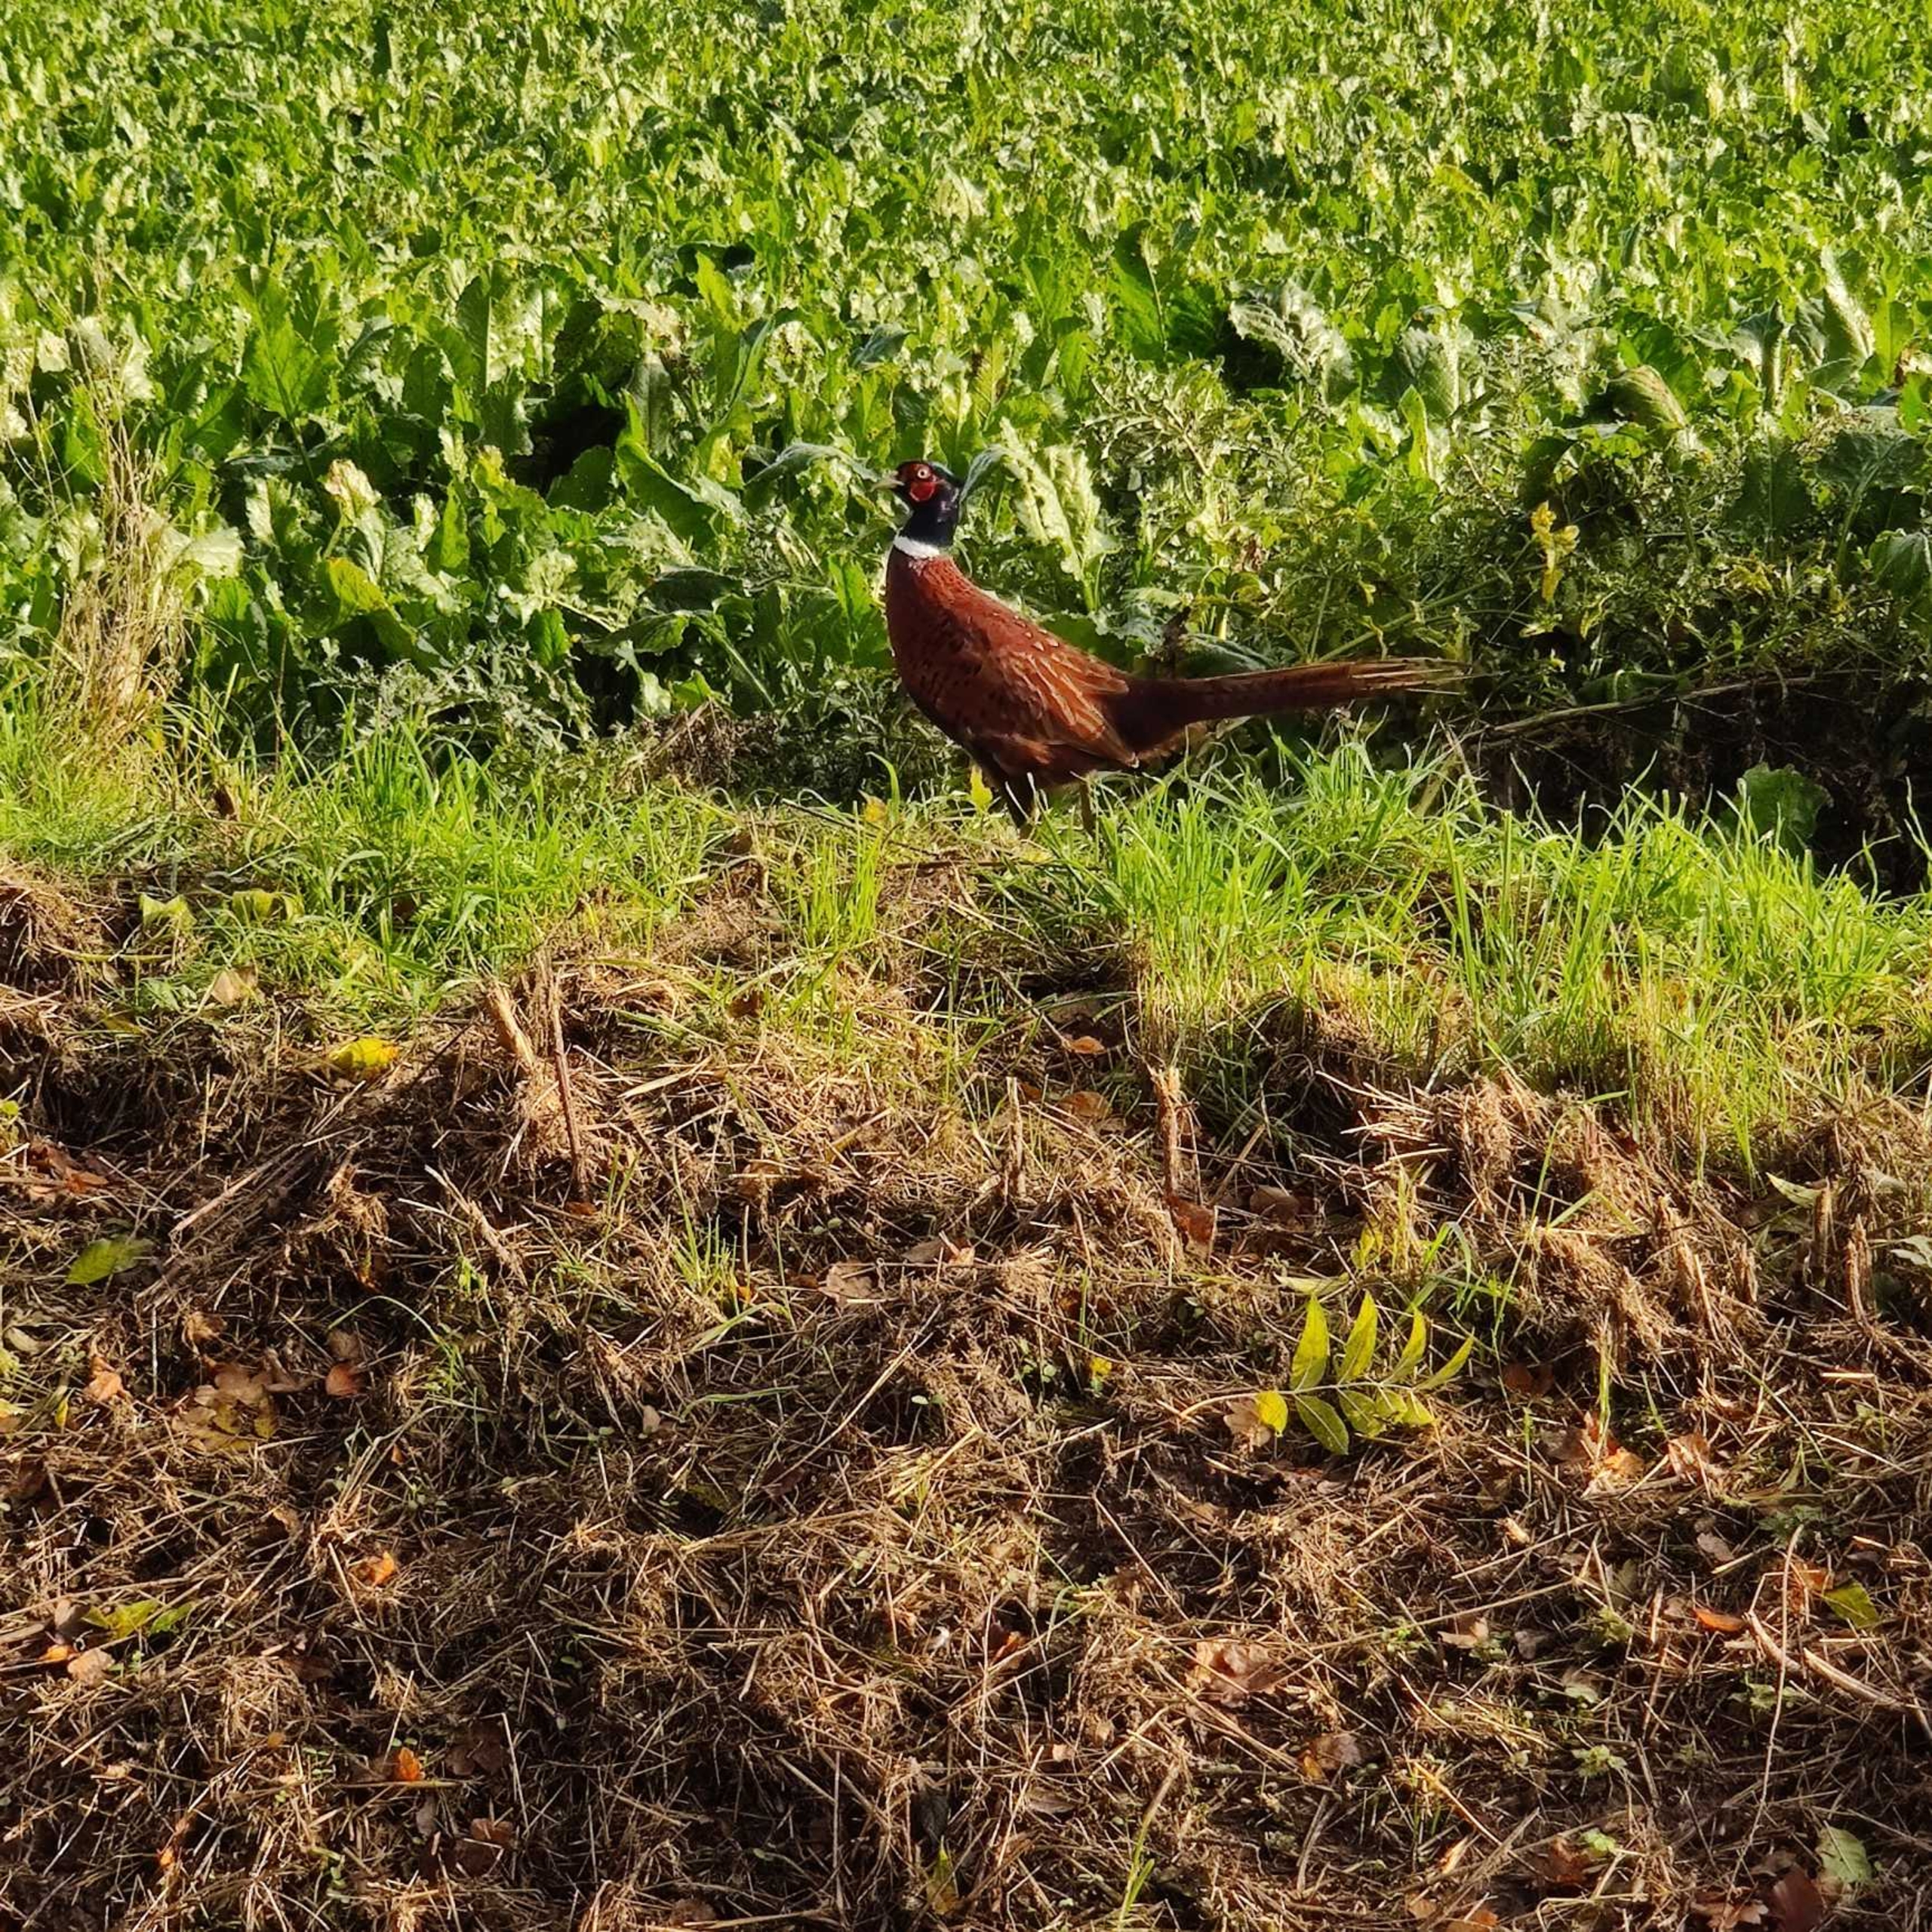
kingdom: Animalia
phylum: Chordata
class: Aves
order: Galliformes
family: Phasianidae
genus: Phasianus
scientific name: Phasianus colchicus
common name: Fasan
